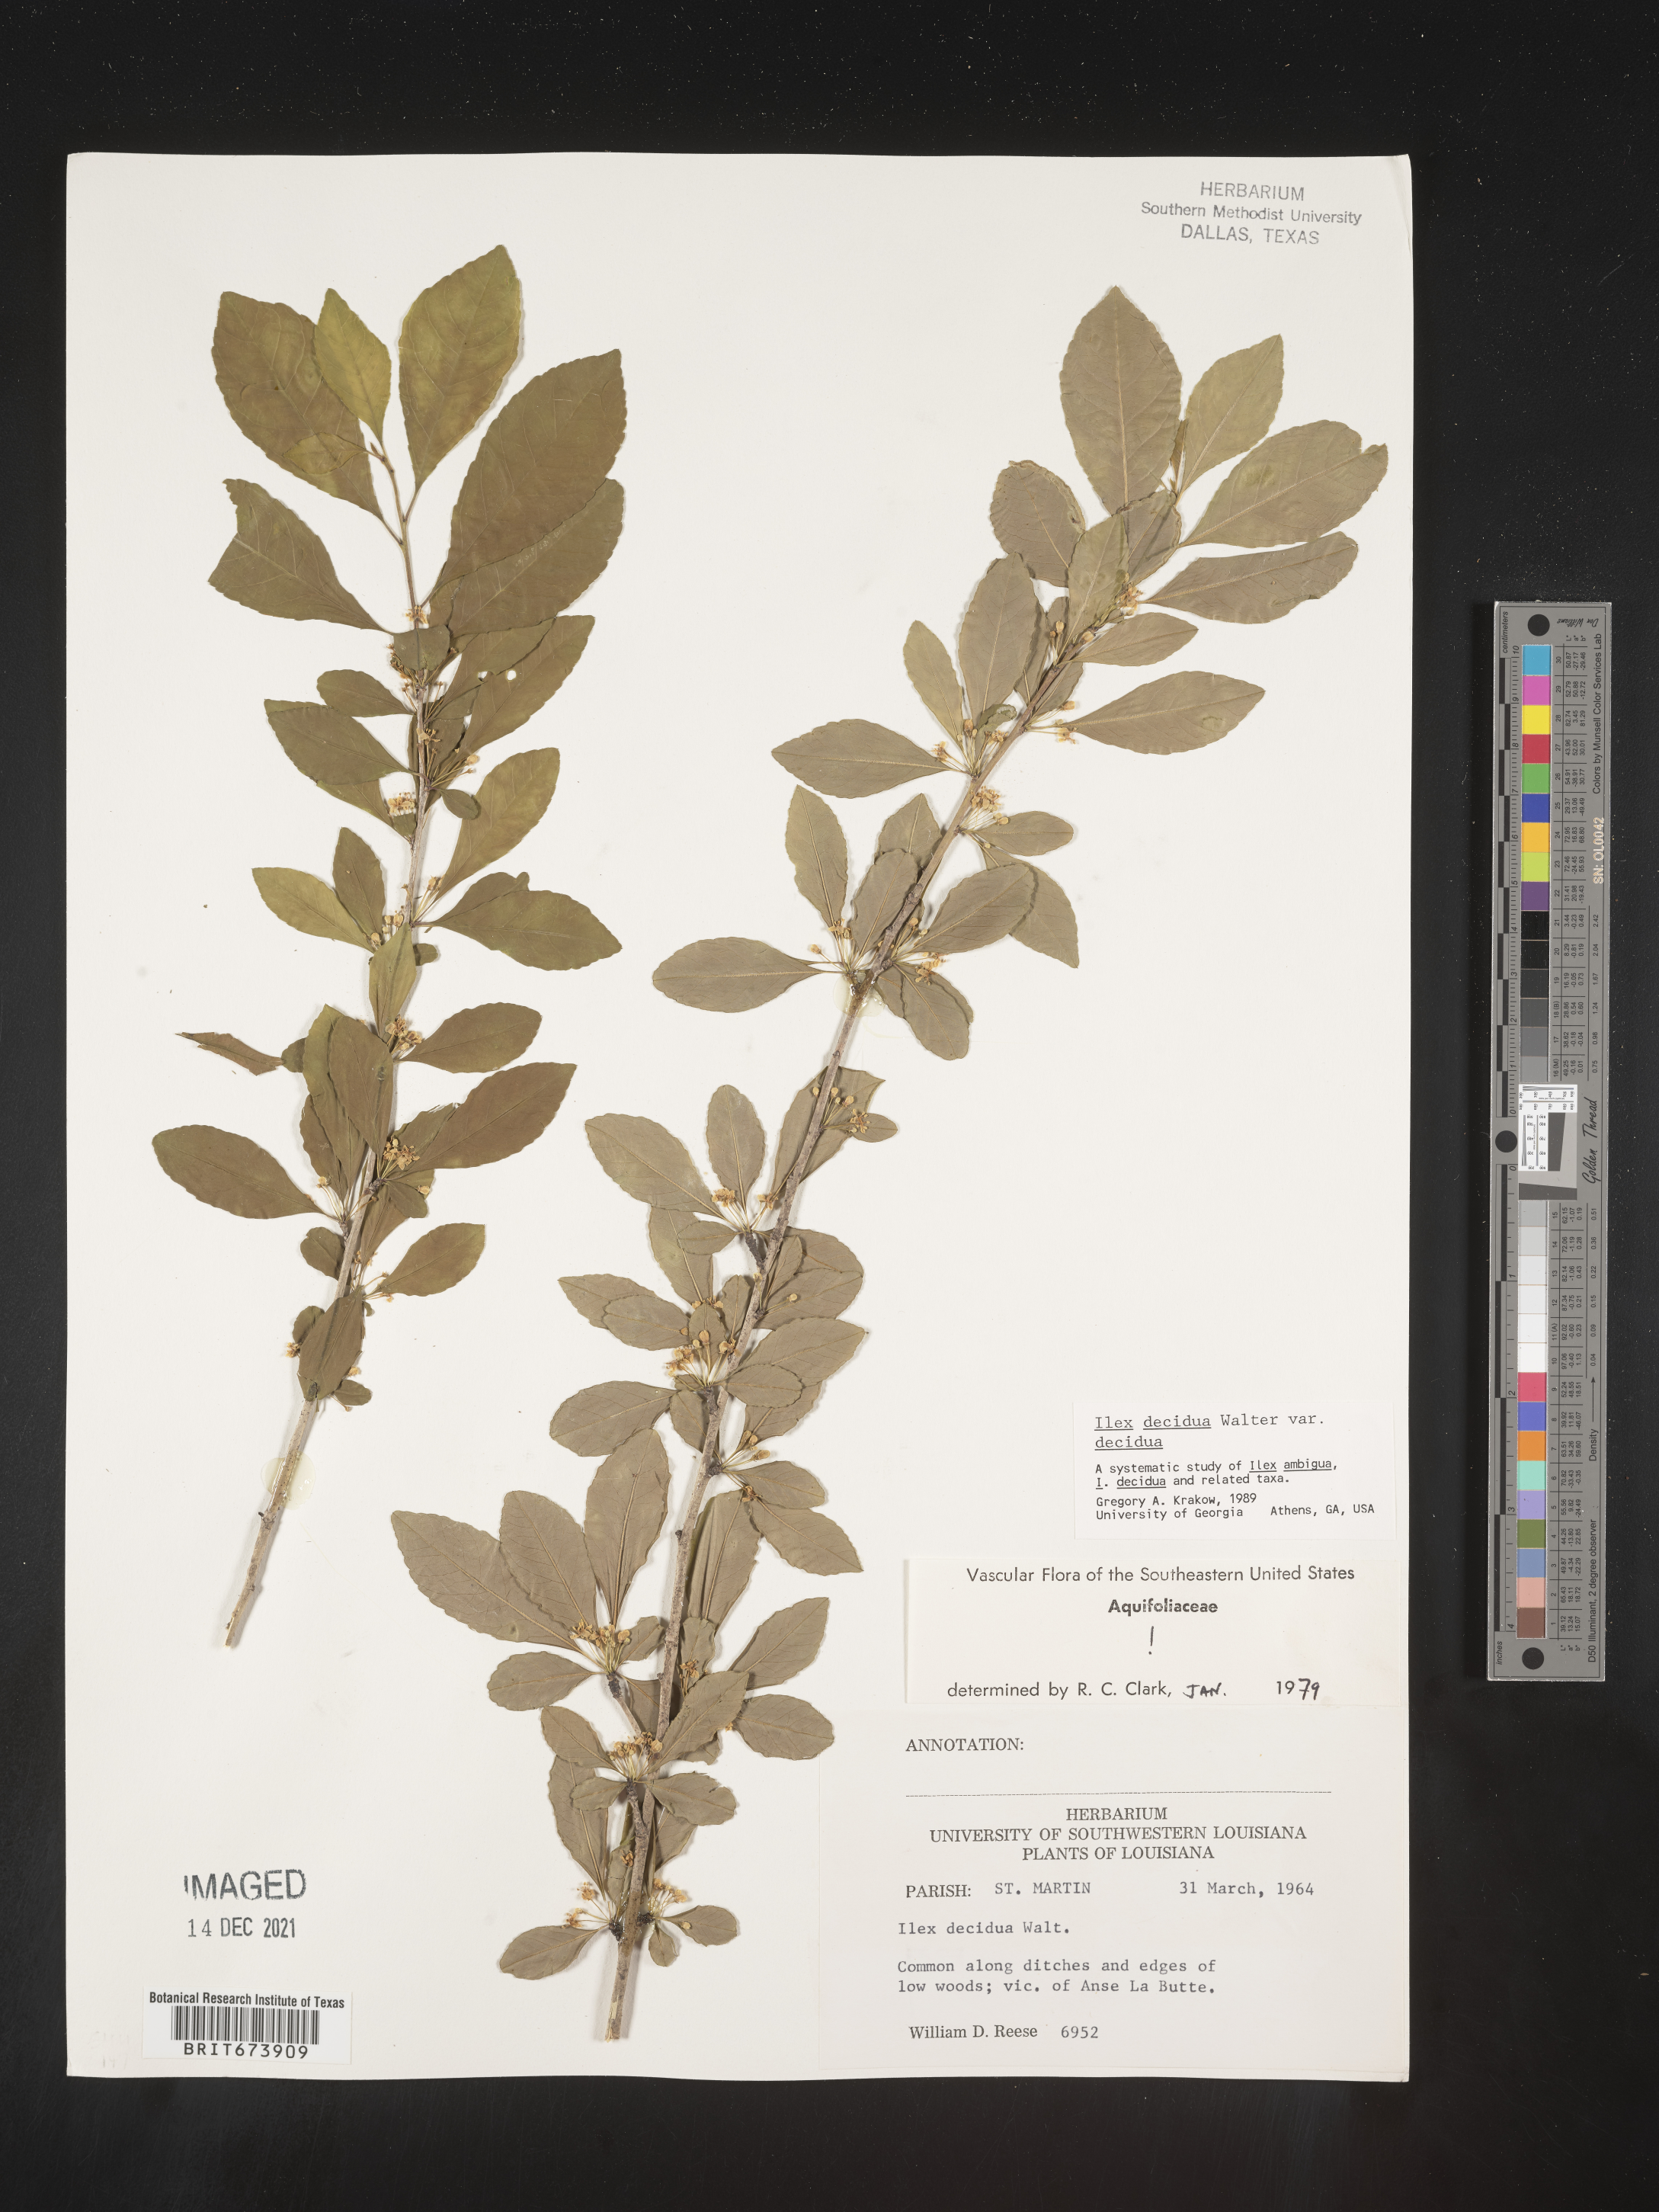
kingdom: Plantae
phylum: Tracheophyta
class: Magnoliopsida
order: Aquifoliales
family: Aquifoliaceae
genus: Ilex
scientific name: Ilex decidua
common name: Possum-haw
